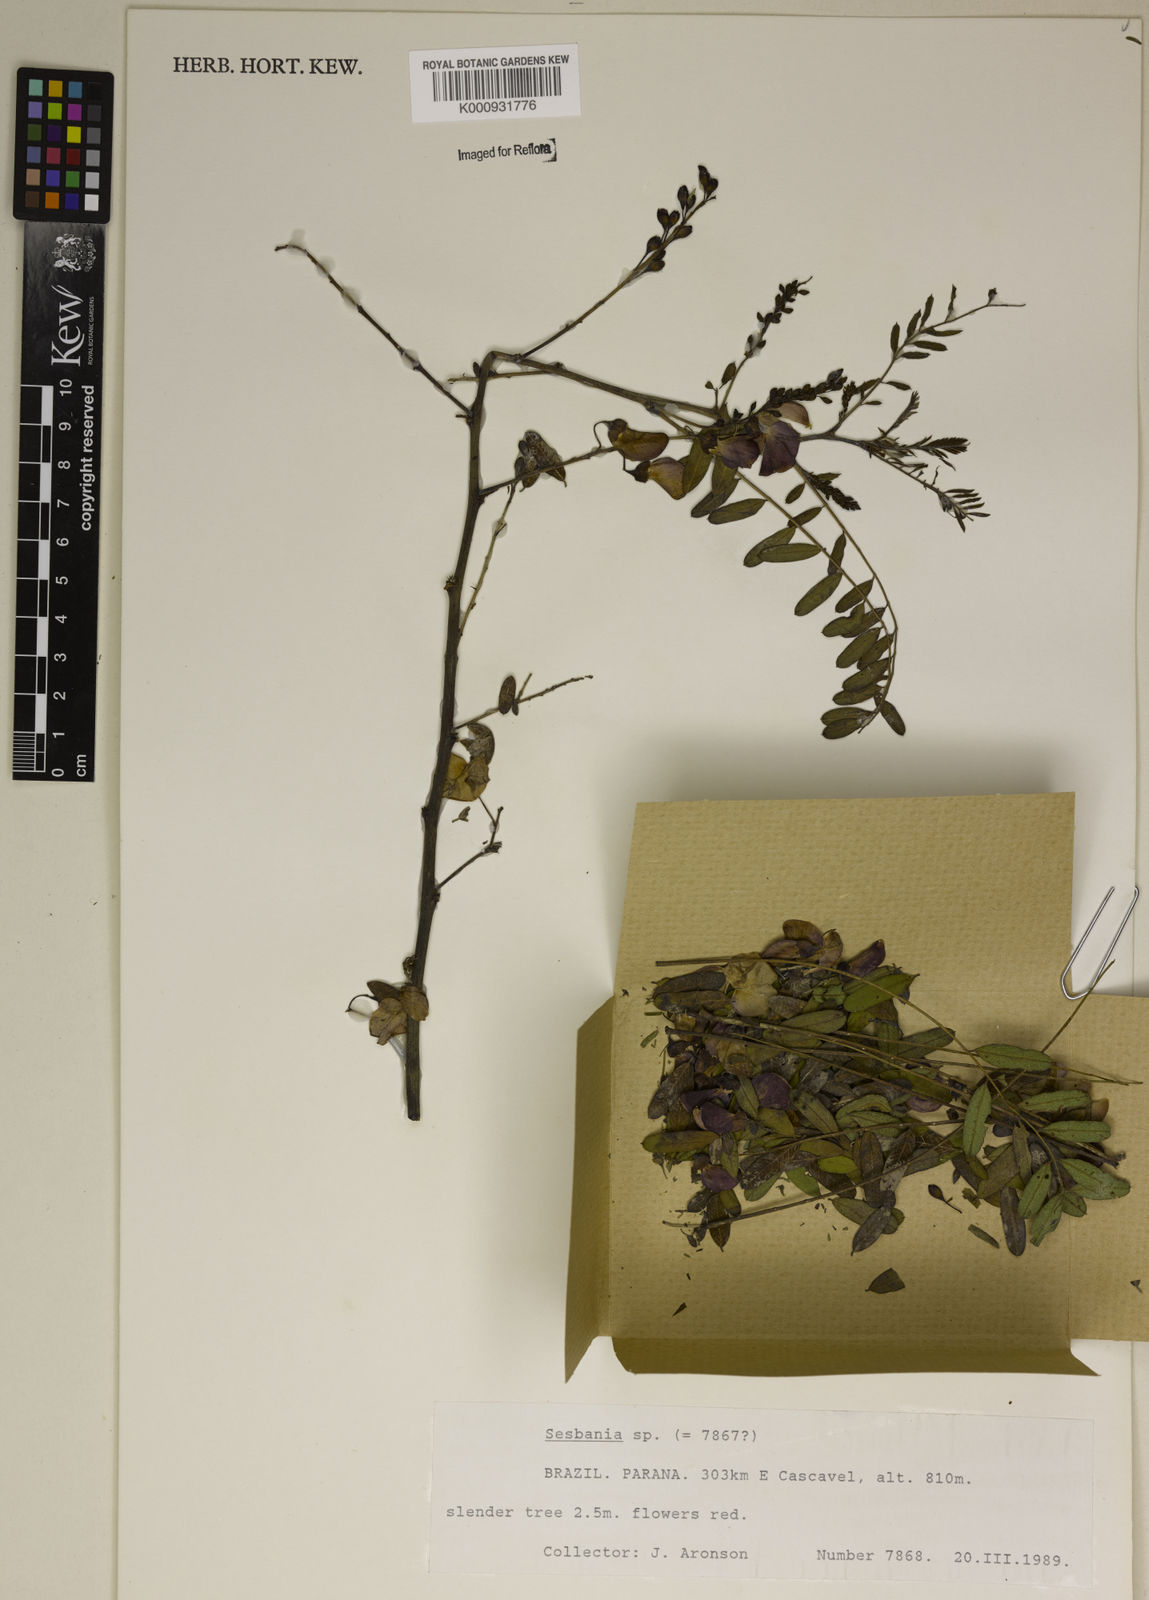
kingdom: Plantae
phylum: Tracheophyta
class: Magnoliopsida
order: Fabales
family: Fabaceae
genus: Sesbania
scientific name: Sesbania
